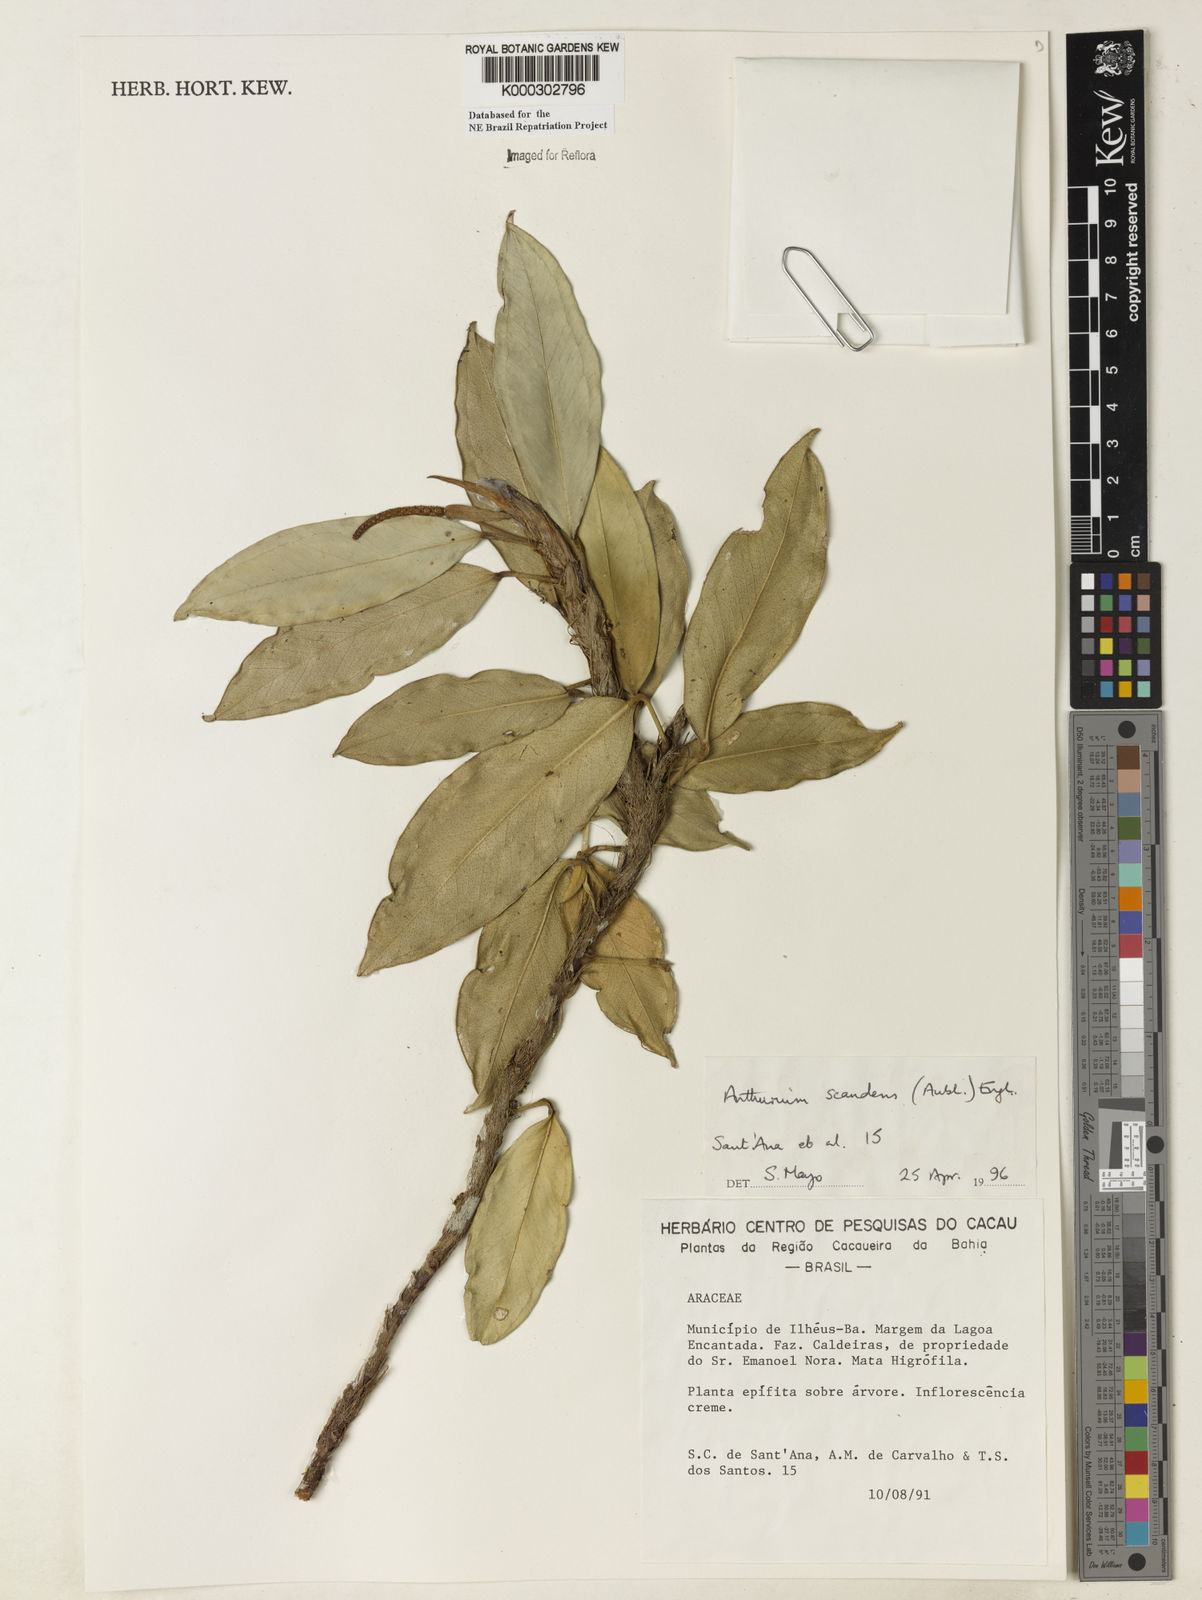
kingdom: Plantae
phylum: Tracheophyta
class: Liliopsida
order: Alismatales
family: Araceae
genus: Anthurium
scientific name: Anthurium scandens
